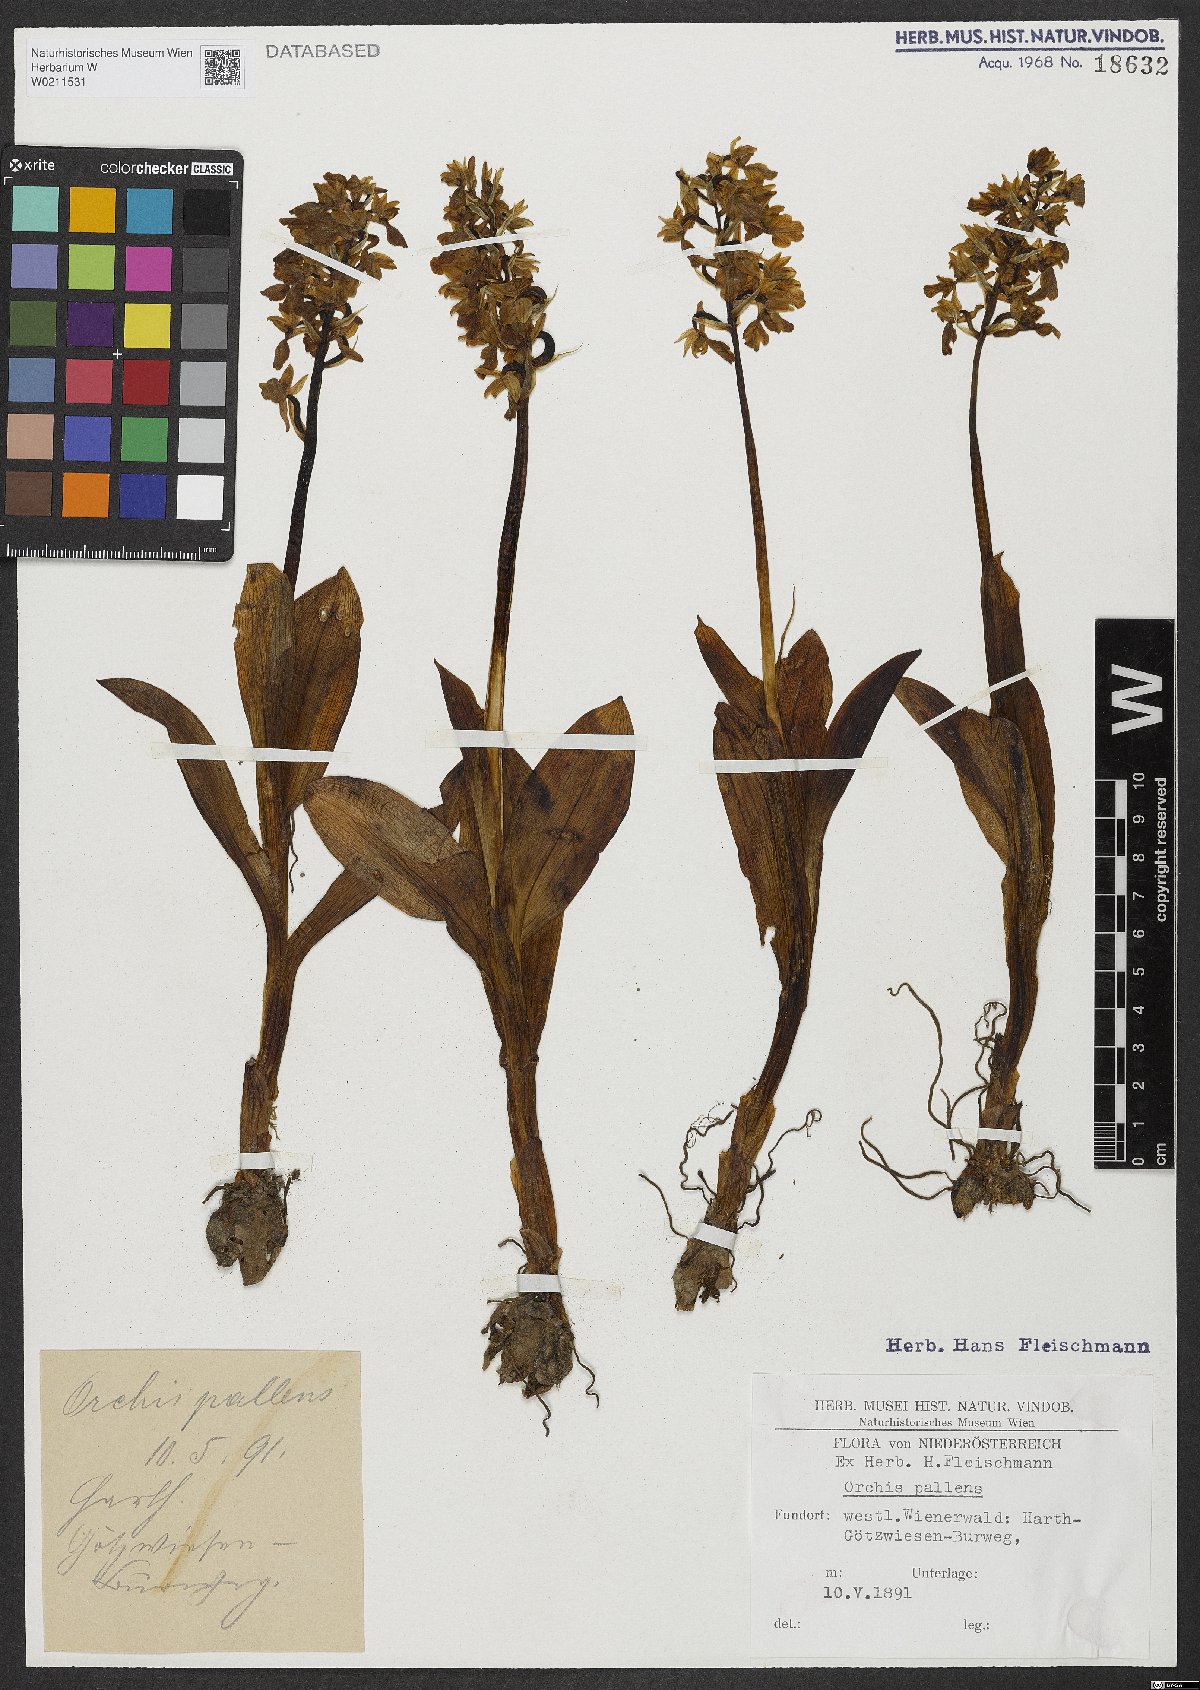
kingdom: Plantae
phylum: Tracheophyta
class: Liliopsida
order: Asparagales
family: Orchidaceae
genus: Orchis
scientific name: Orchis pallens
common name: Pale-flowered orchid
